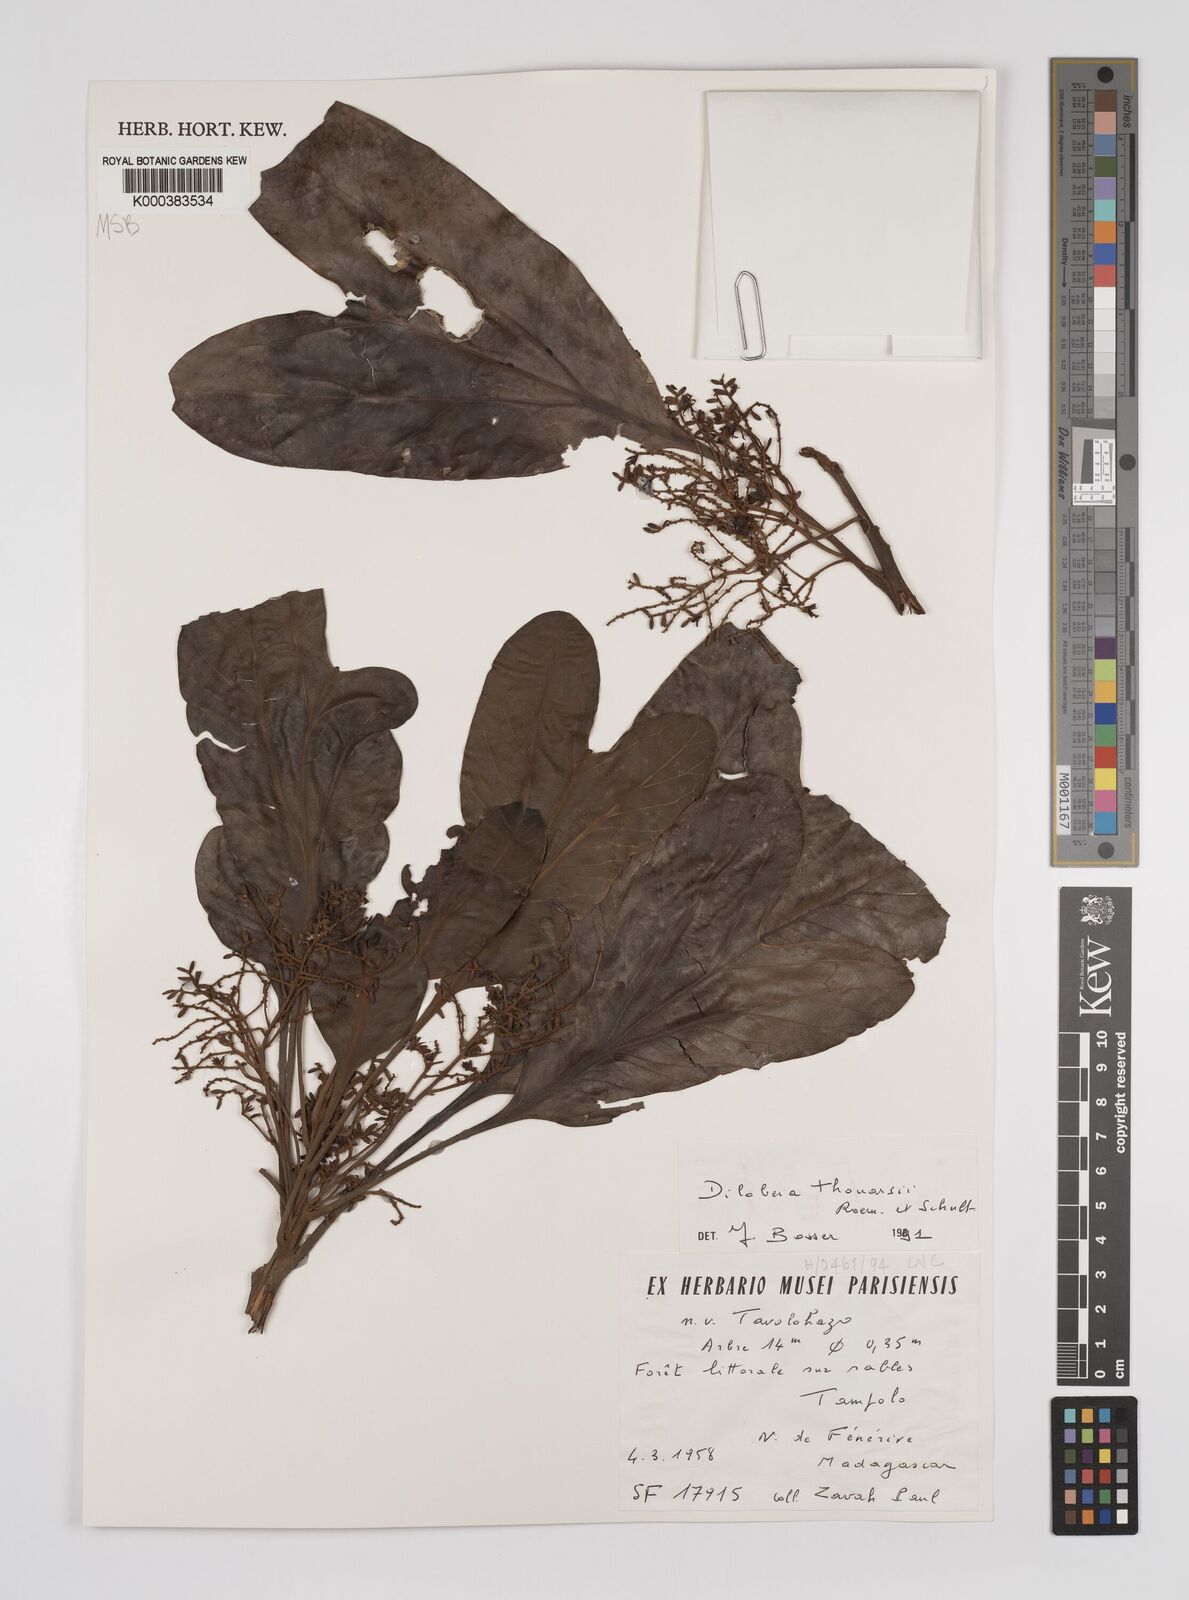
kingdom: Plantae
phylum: Tracheophyta
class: Magnoliopsida
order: Proteales
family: Proteaceae
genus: Dilobeia
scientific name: Dilobeia thouarsii
